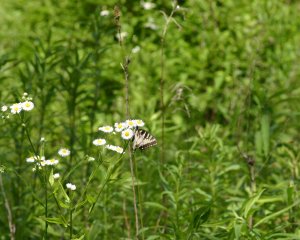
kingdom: Animalia
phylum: Arthropoda
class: Insecta
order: Lepidoptera
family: Papilionidae
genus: Pterourus
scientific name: Pterourus glaucus
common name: Eastern Tiger Swallowtail
